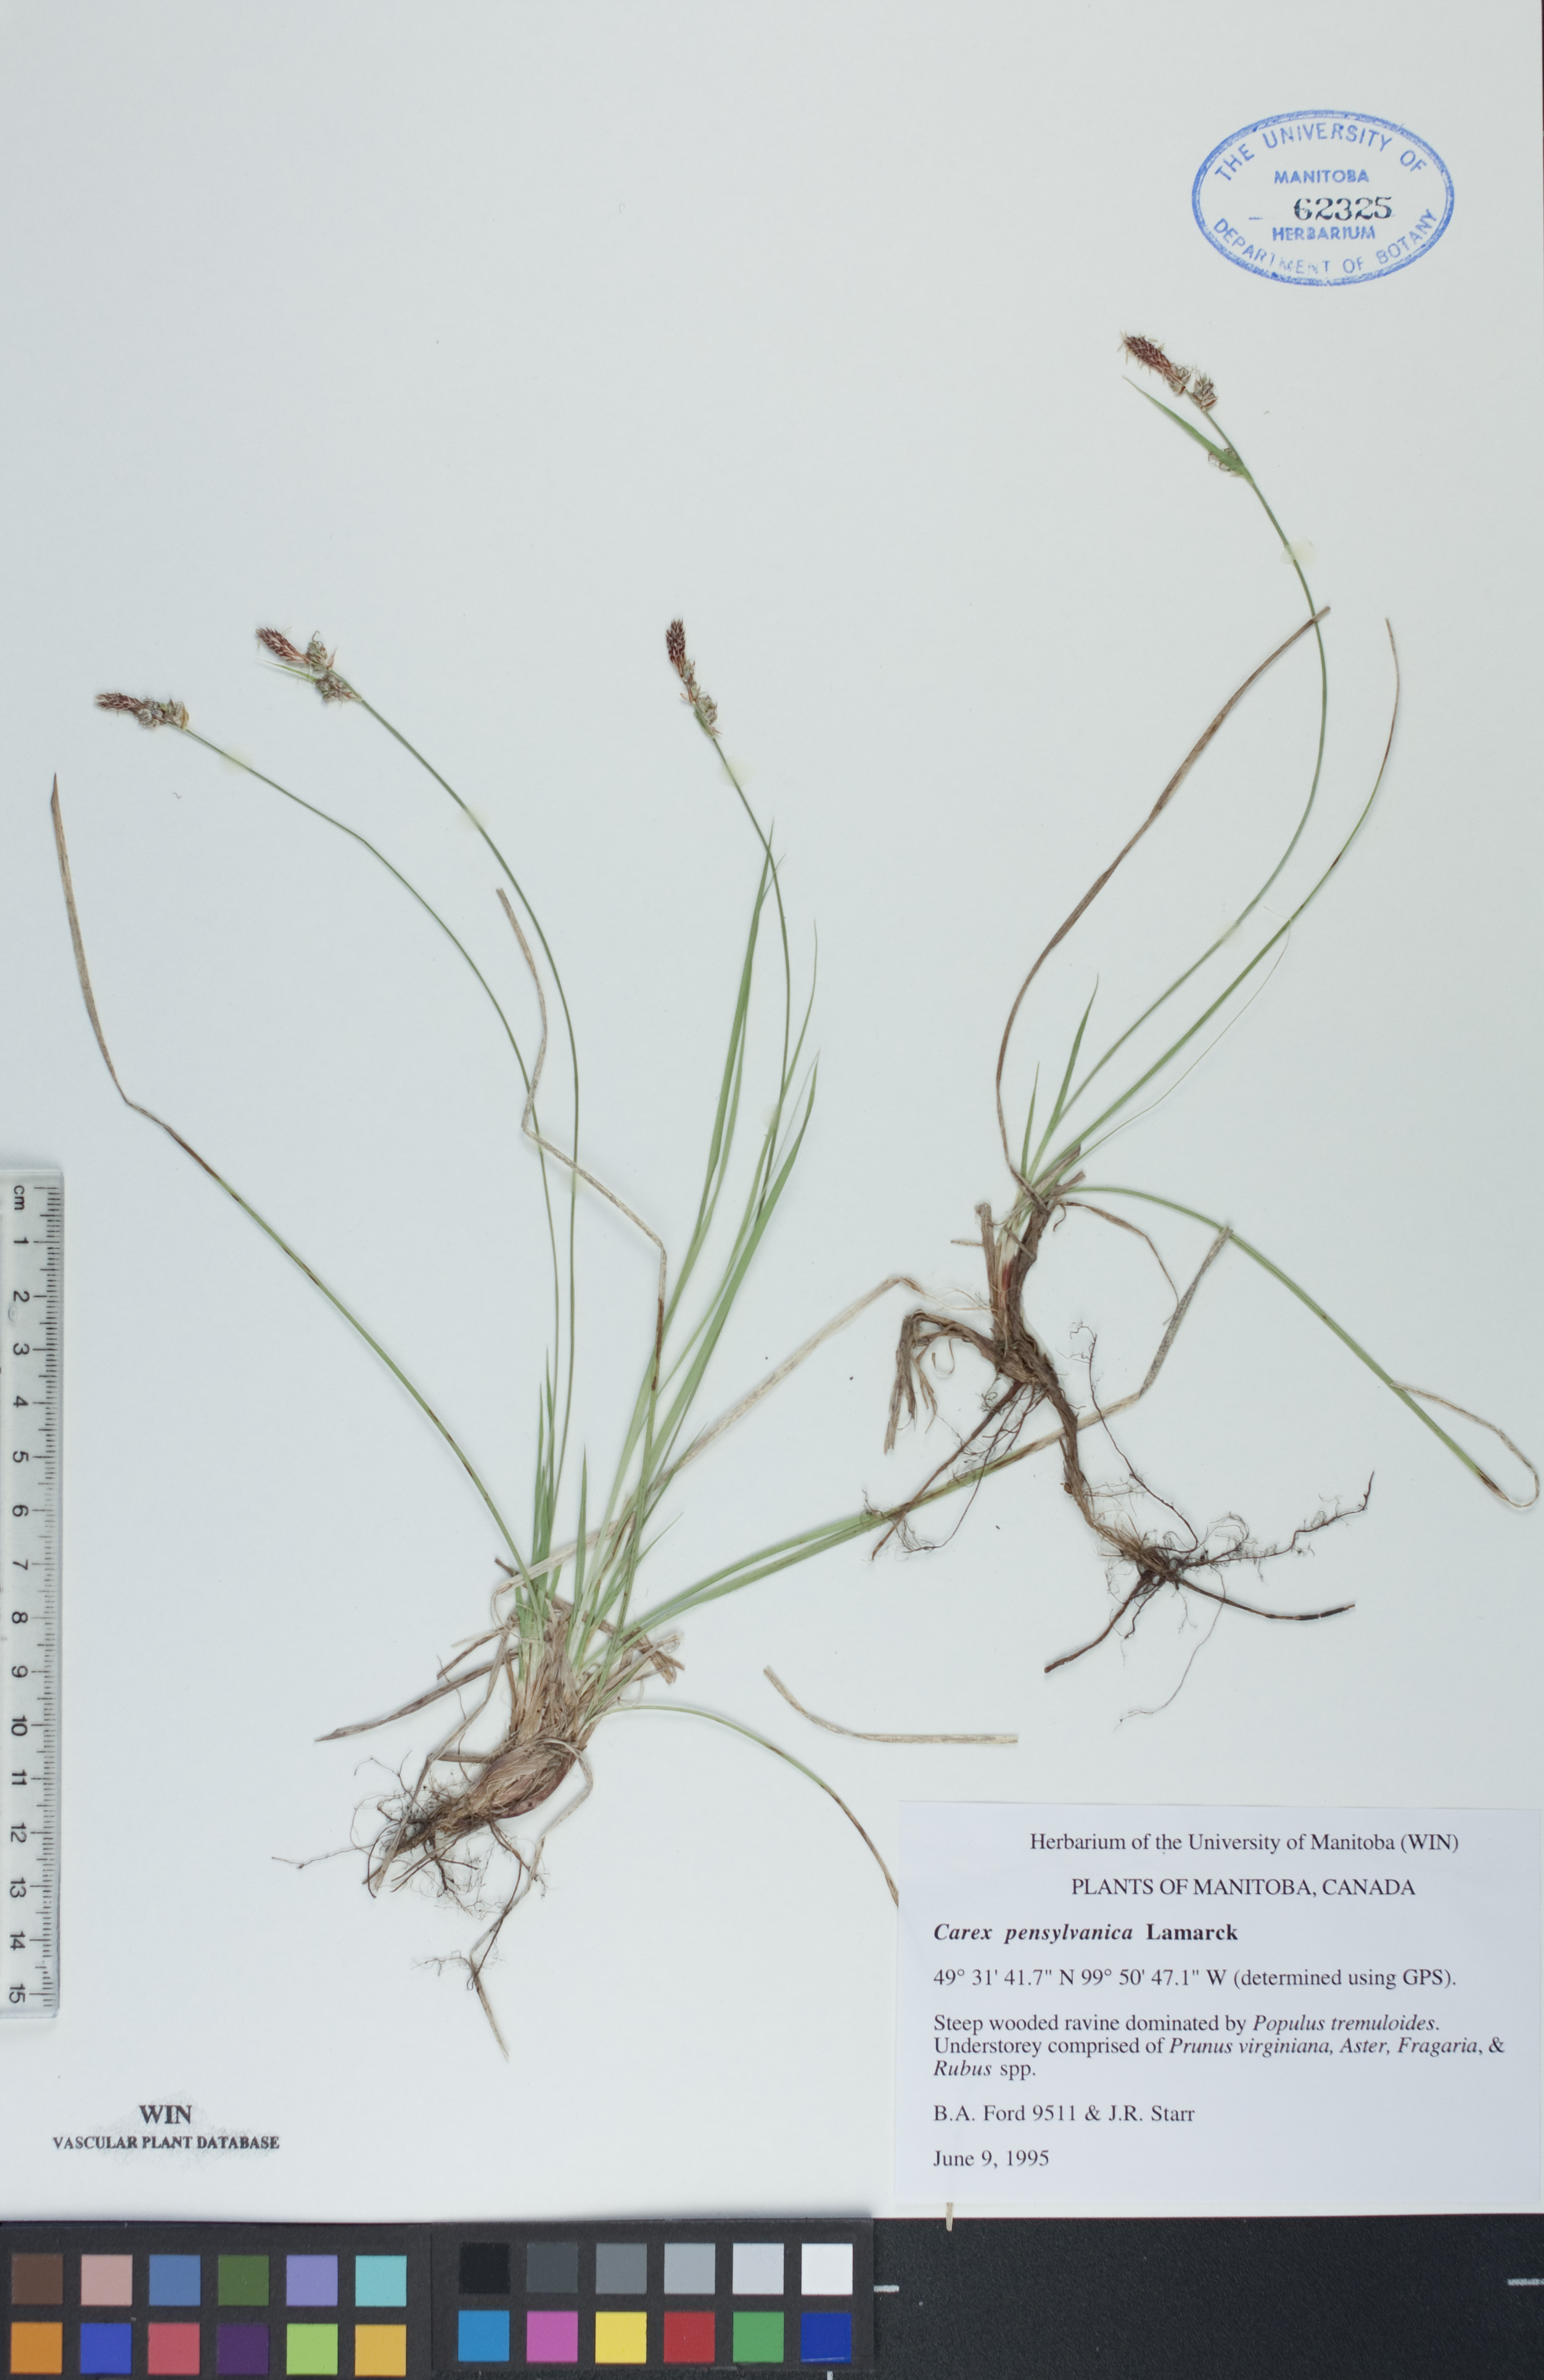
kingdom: Plantae
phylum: Tracheophyta
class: Liliopsida
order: Poales
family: Cyperaceae
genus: Carex
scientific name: Carex pensylvanica
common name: Common oak sedge
